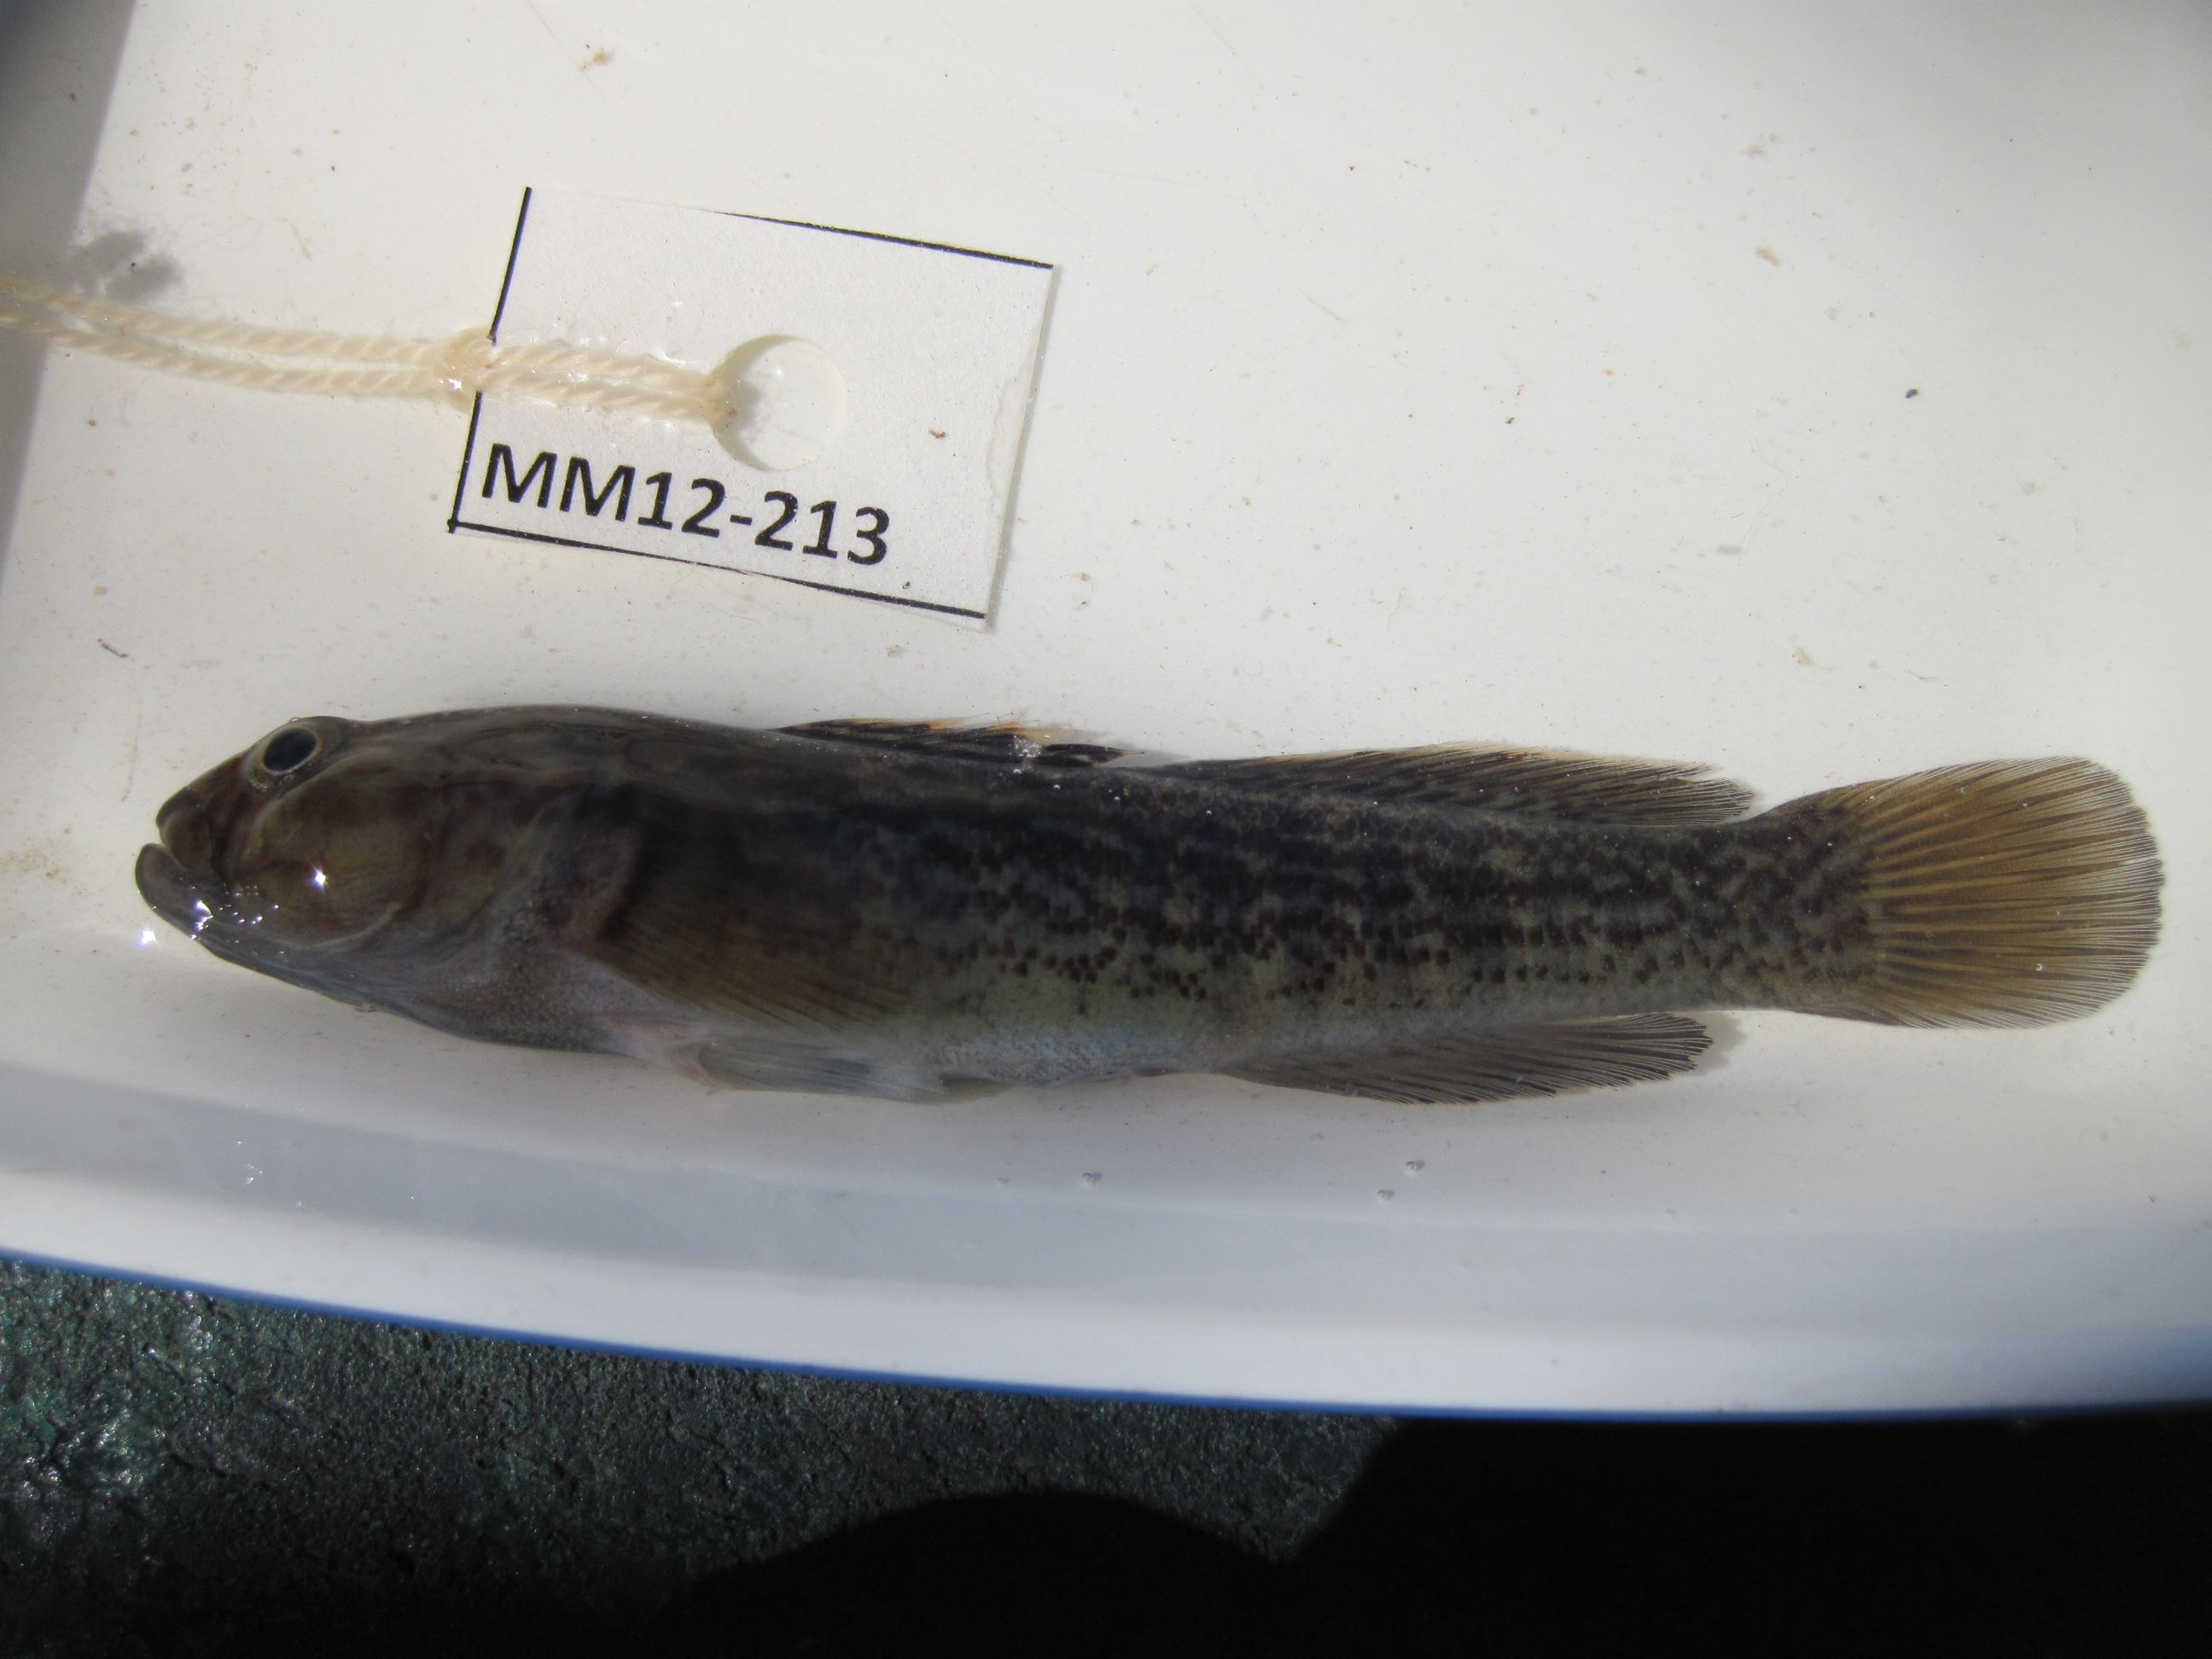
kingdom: Animalia
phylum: Chordata
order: Perciformes
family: Gobiidae
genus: Caffrogobius
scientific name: Caffrogobius caffer
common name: Banded goby
